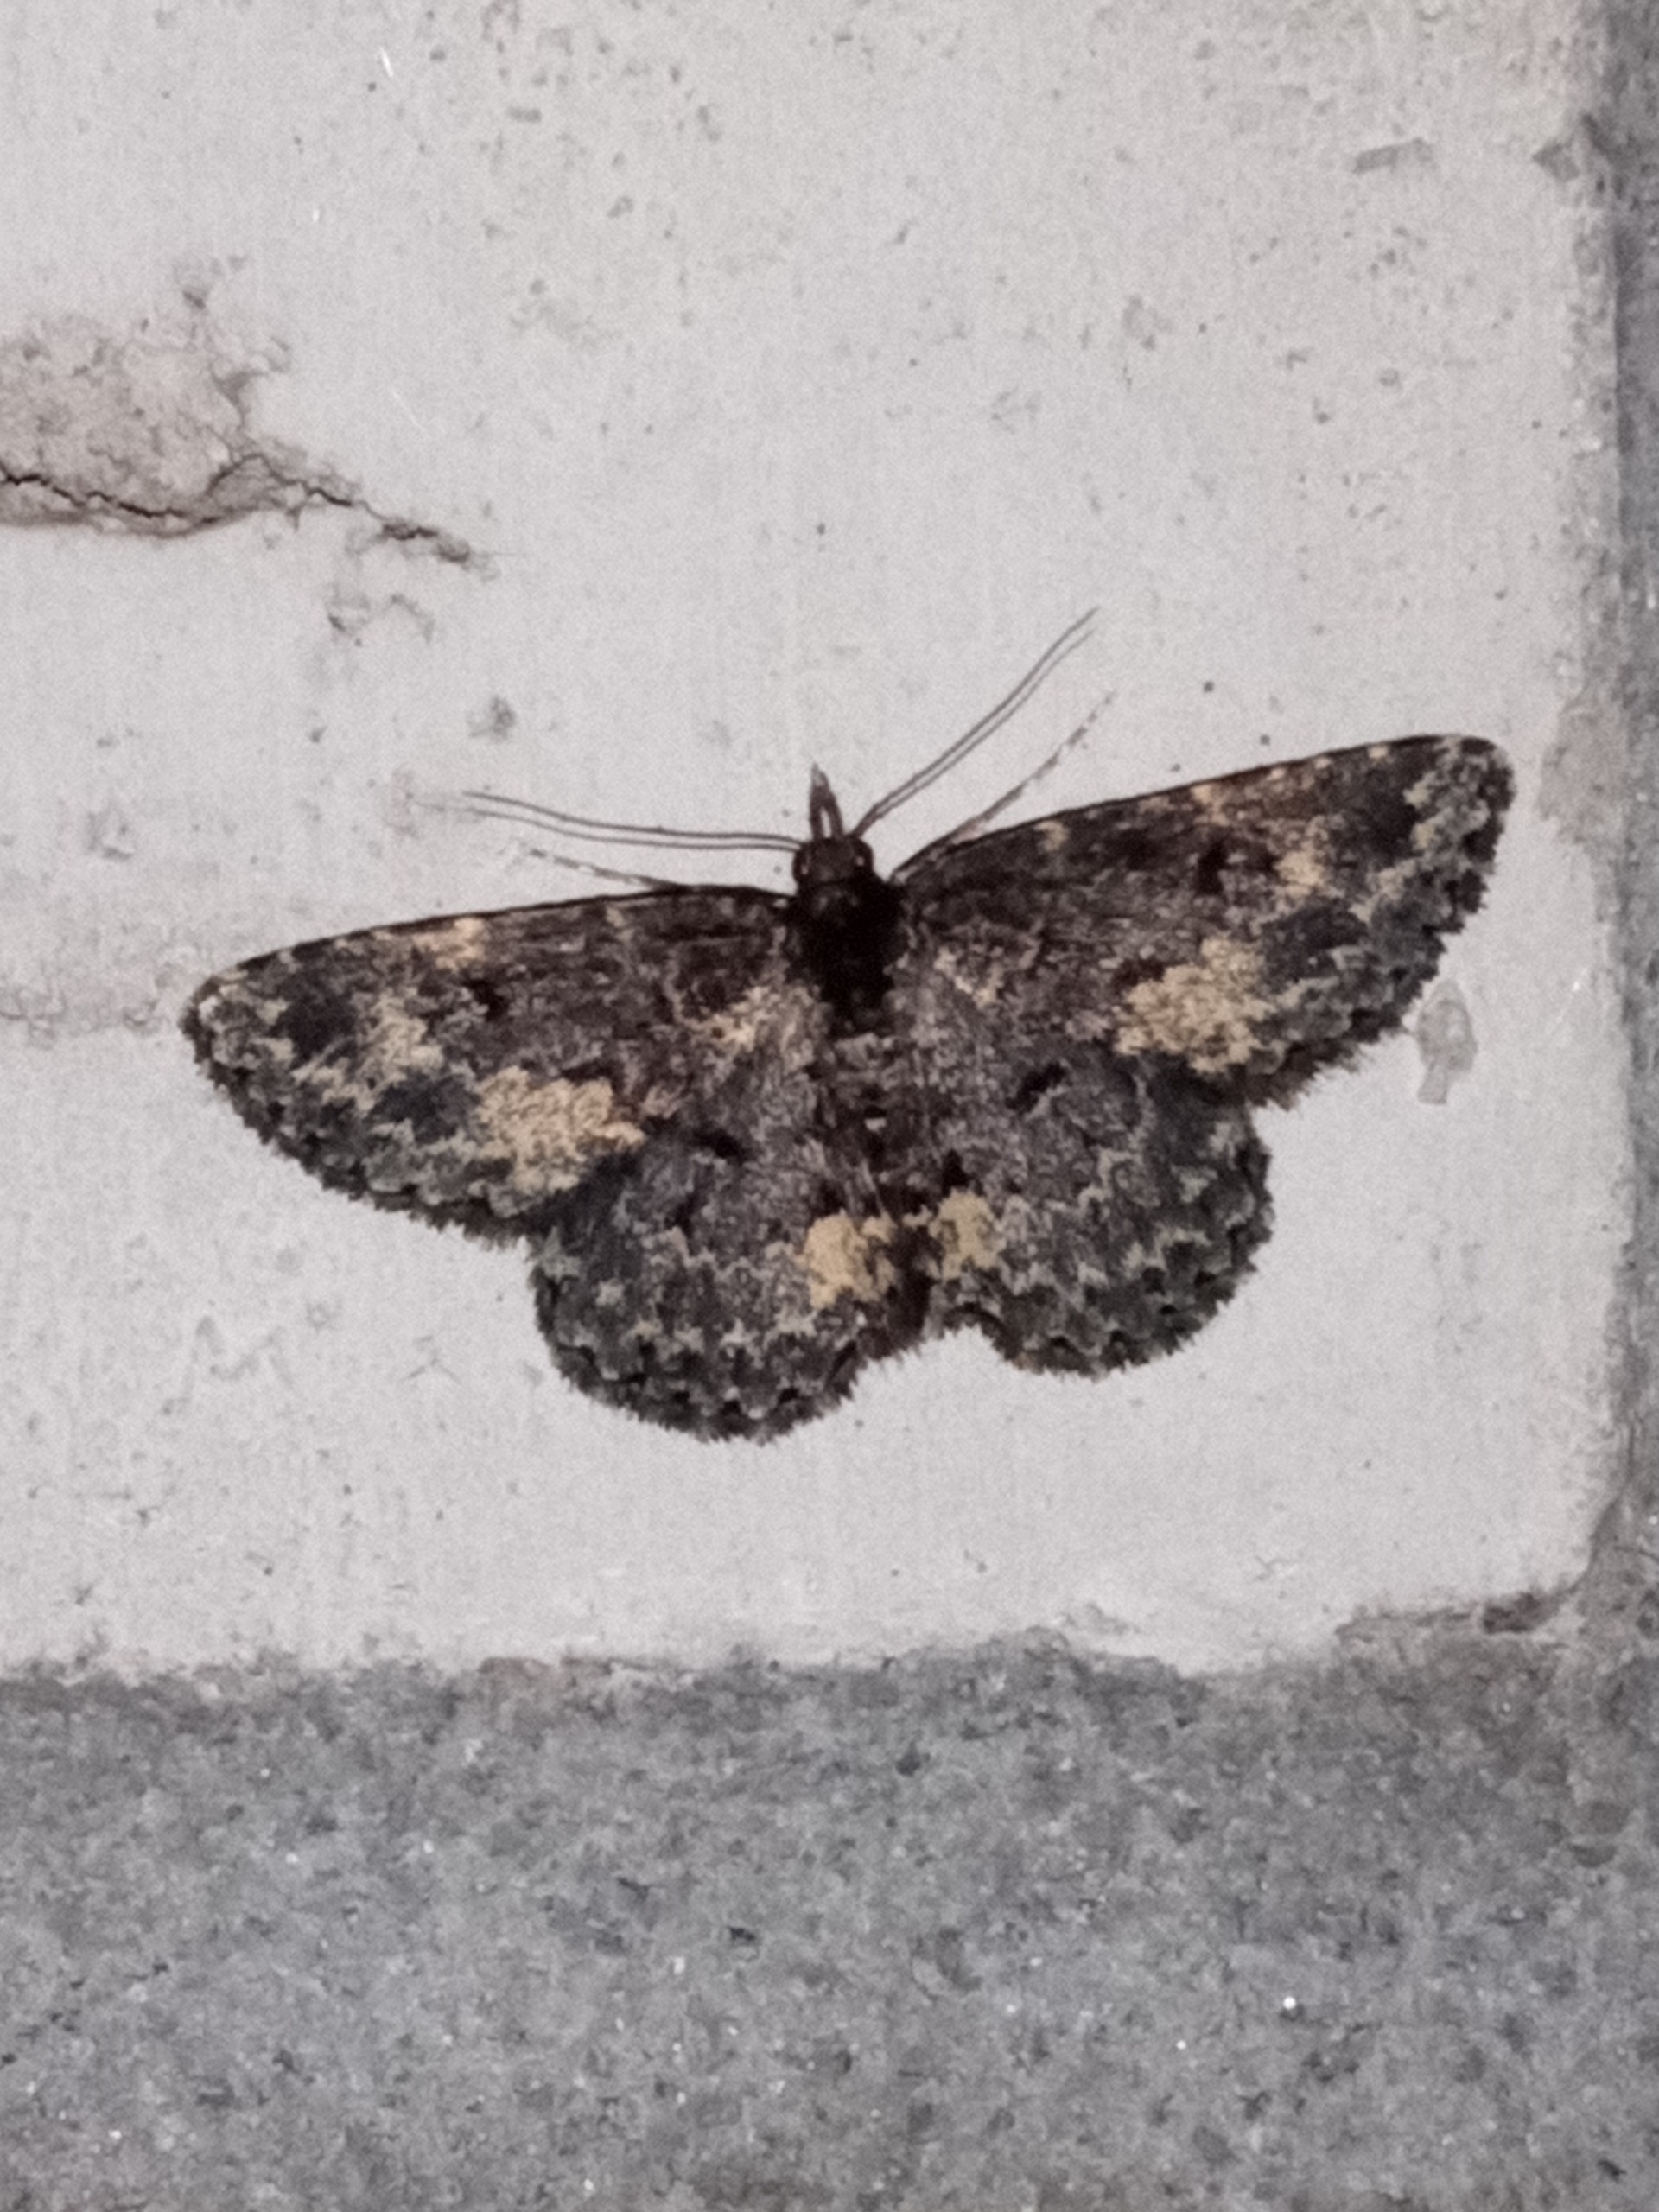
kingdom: Animalia
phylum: Arthropoda
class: Insecta
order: Lepidoptera
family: Erebidae
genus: Parascotia
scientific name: Parascotia fuliginaria
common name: Svampeugle
